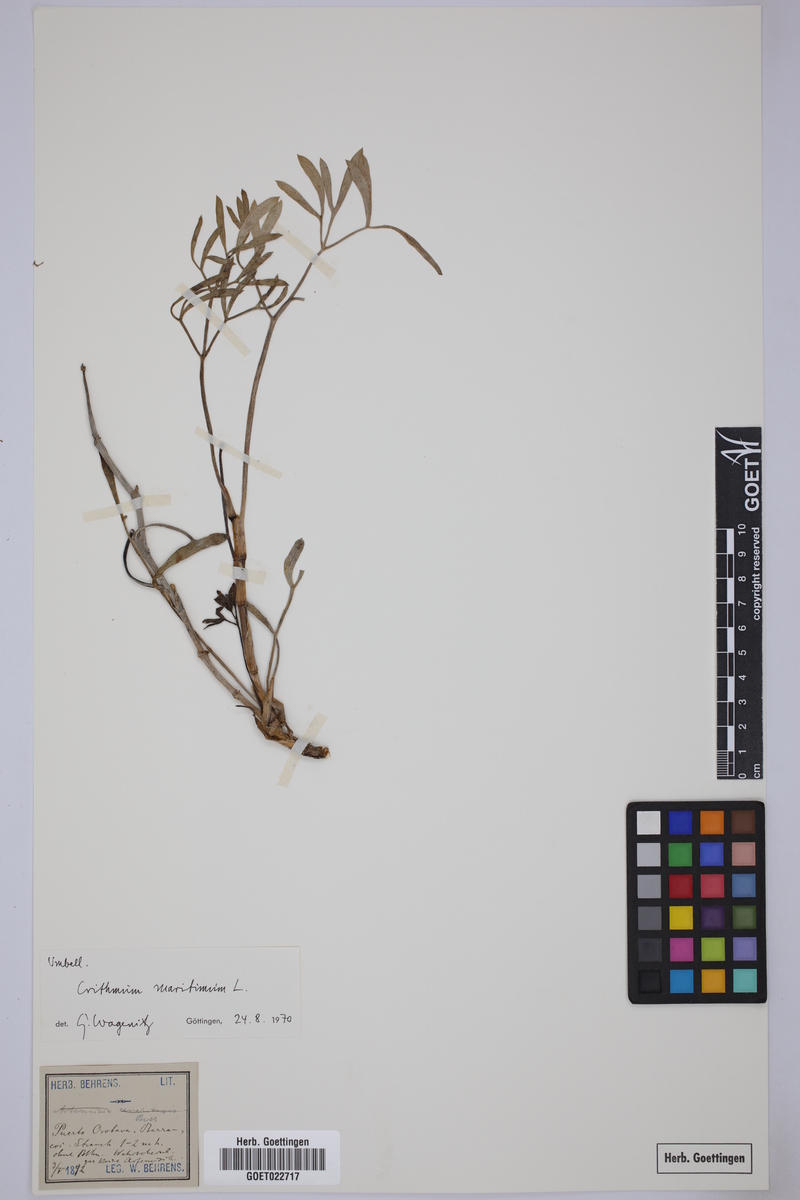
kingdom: Plantae
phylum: Tracheophyta
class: Magnoliopsida
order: Apiales
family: Apiaceae
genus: Crithmum
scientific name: Crithmum maritimum
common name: Rock samphire
